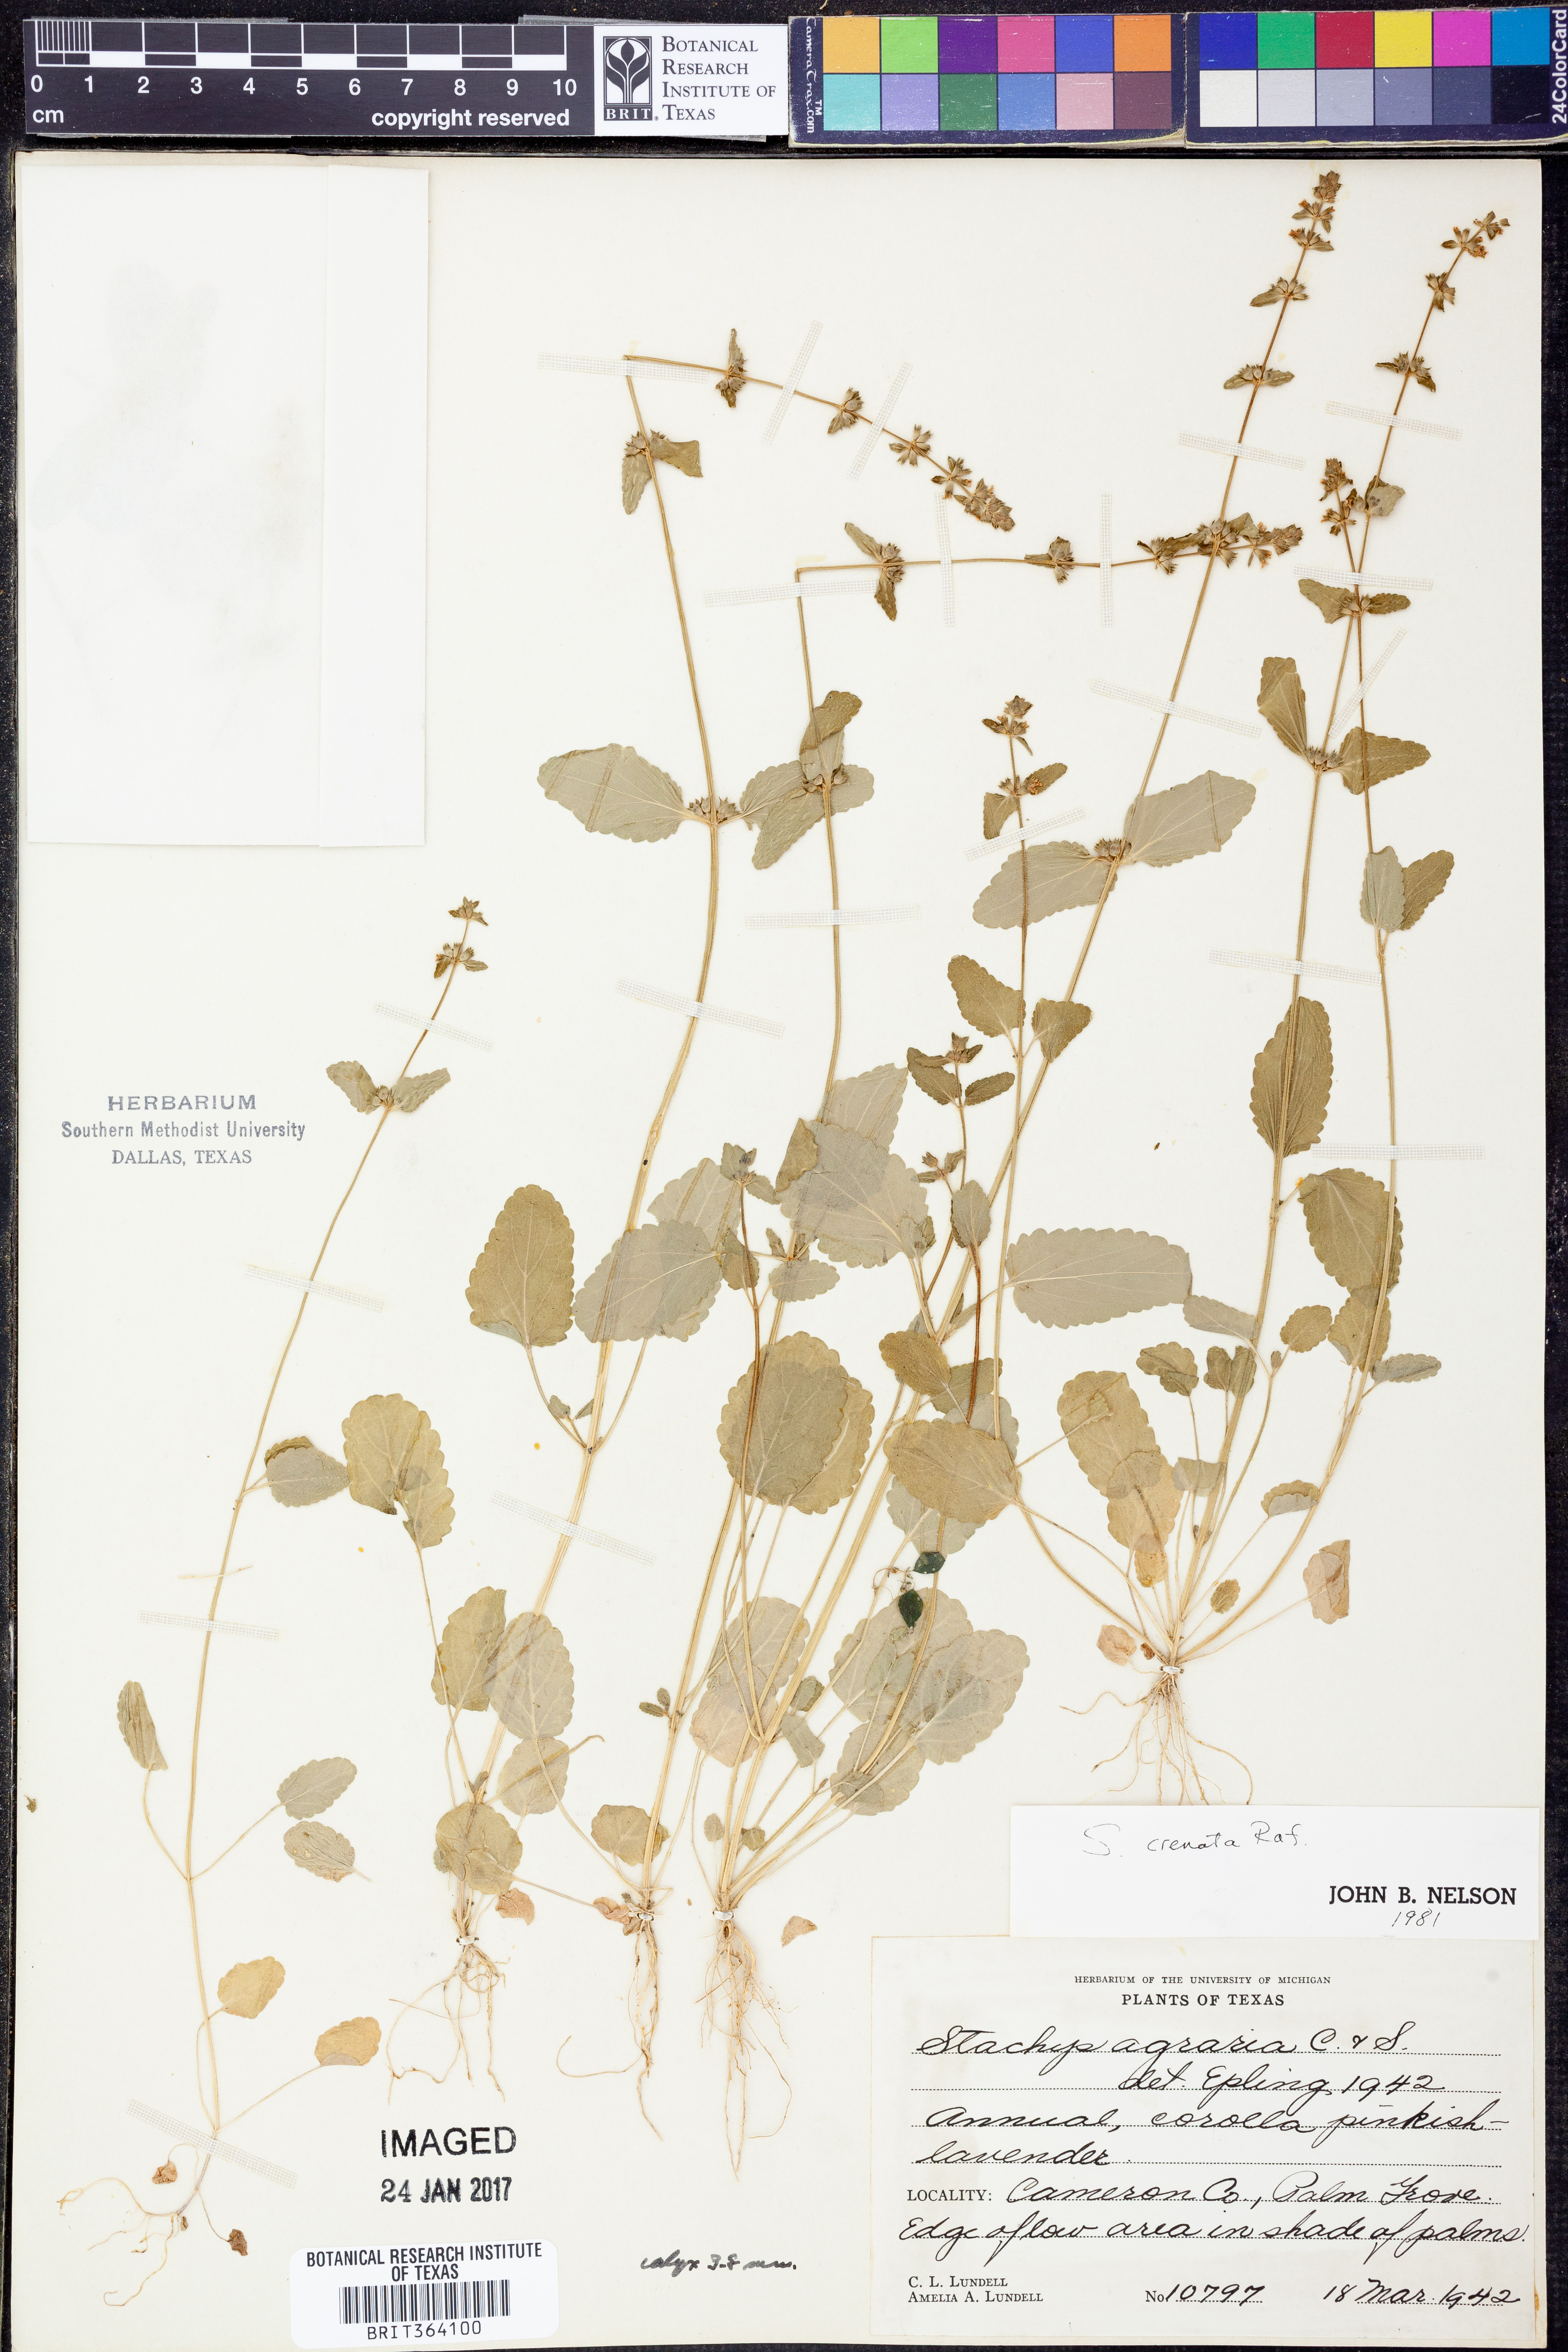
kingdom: Plantae
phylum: Tracheophyta
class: Magnoliopsida
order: Lamiales
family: Lamiaceae
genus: Stachys
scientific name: Stachys agraria
